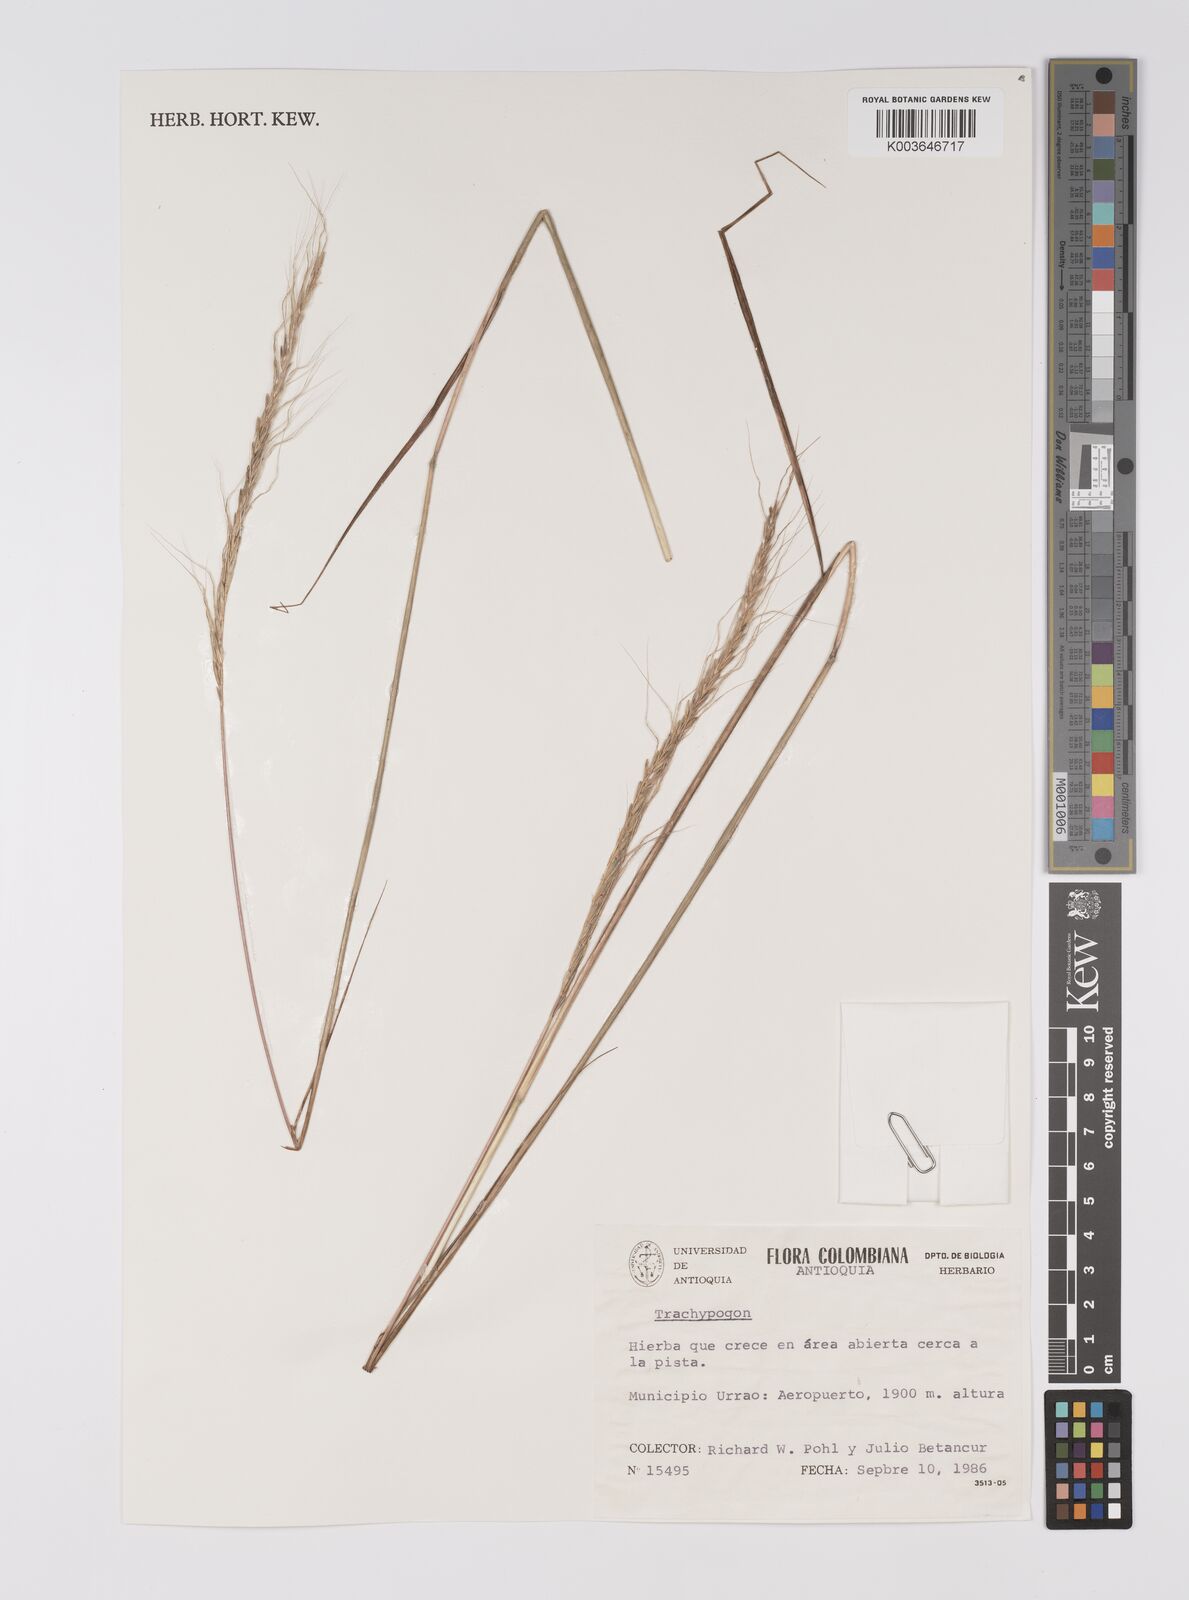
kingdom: Plantae
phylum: Tracheophyta
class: Liliopsida
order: Poales
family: Poaceae
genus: Trachypogon
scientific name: Trachypogon spicatus
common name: Crinkle-awn
